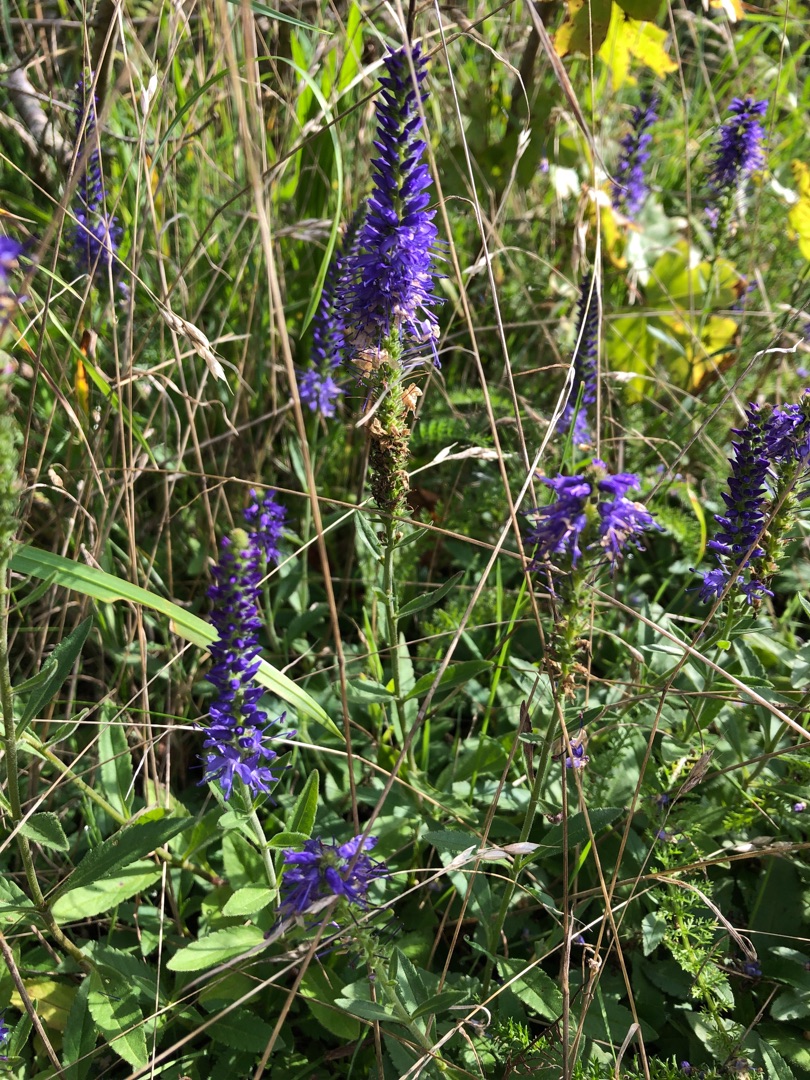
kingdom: Plantae
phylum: Tracheophyta
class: Magnoliopsida
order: Lamiales
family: Plantaginaceae
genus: Veronica
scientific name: Veronica spicata
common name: Aks-ærenpris
